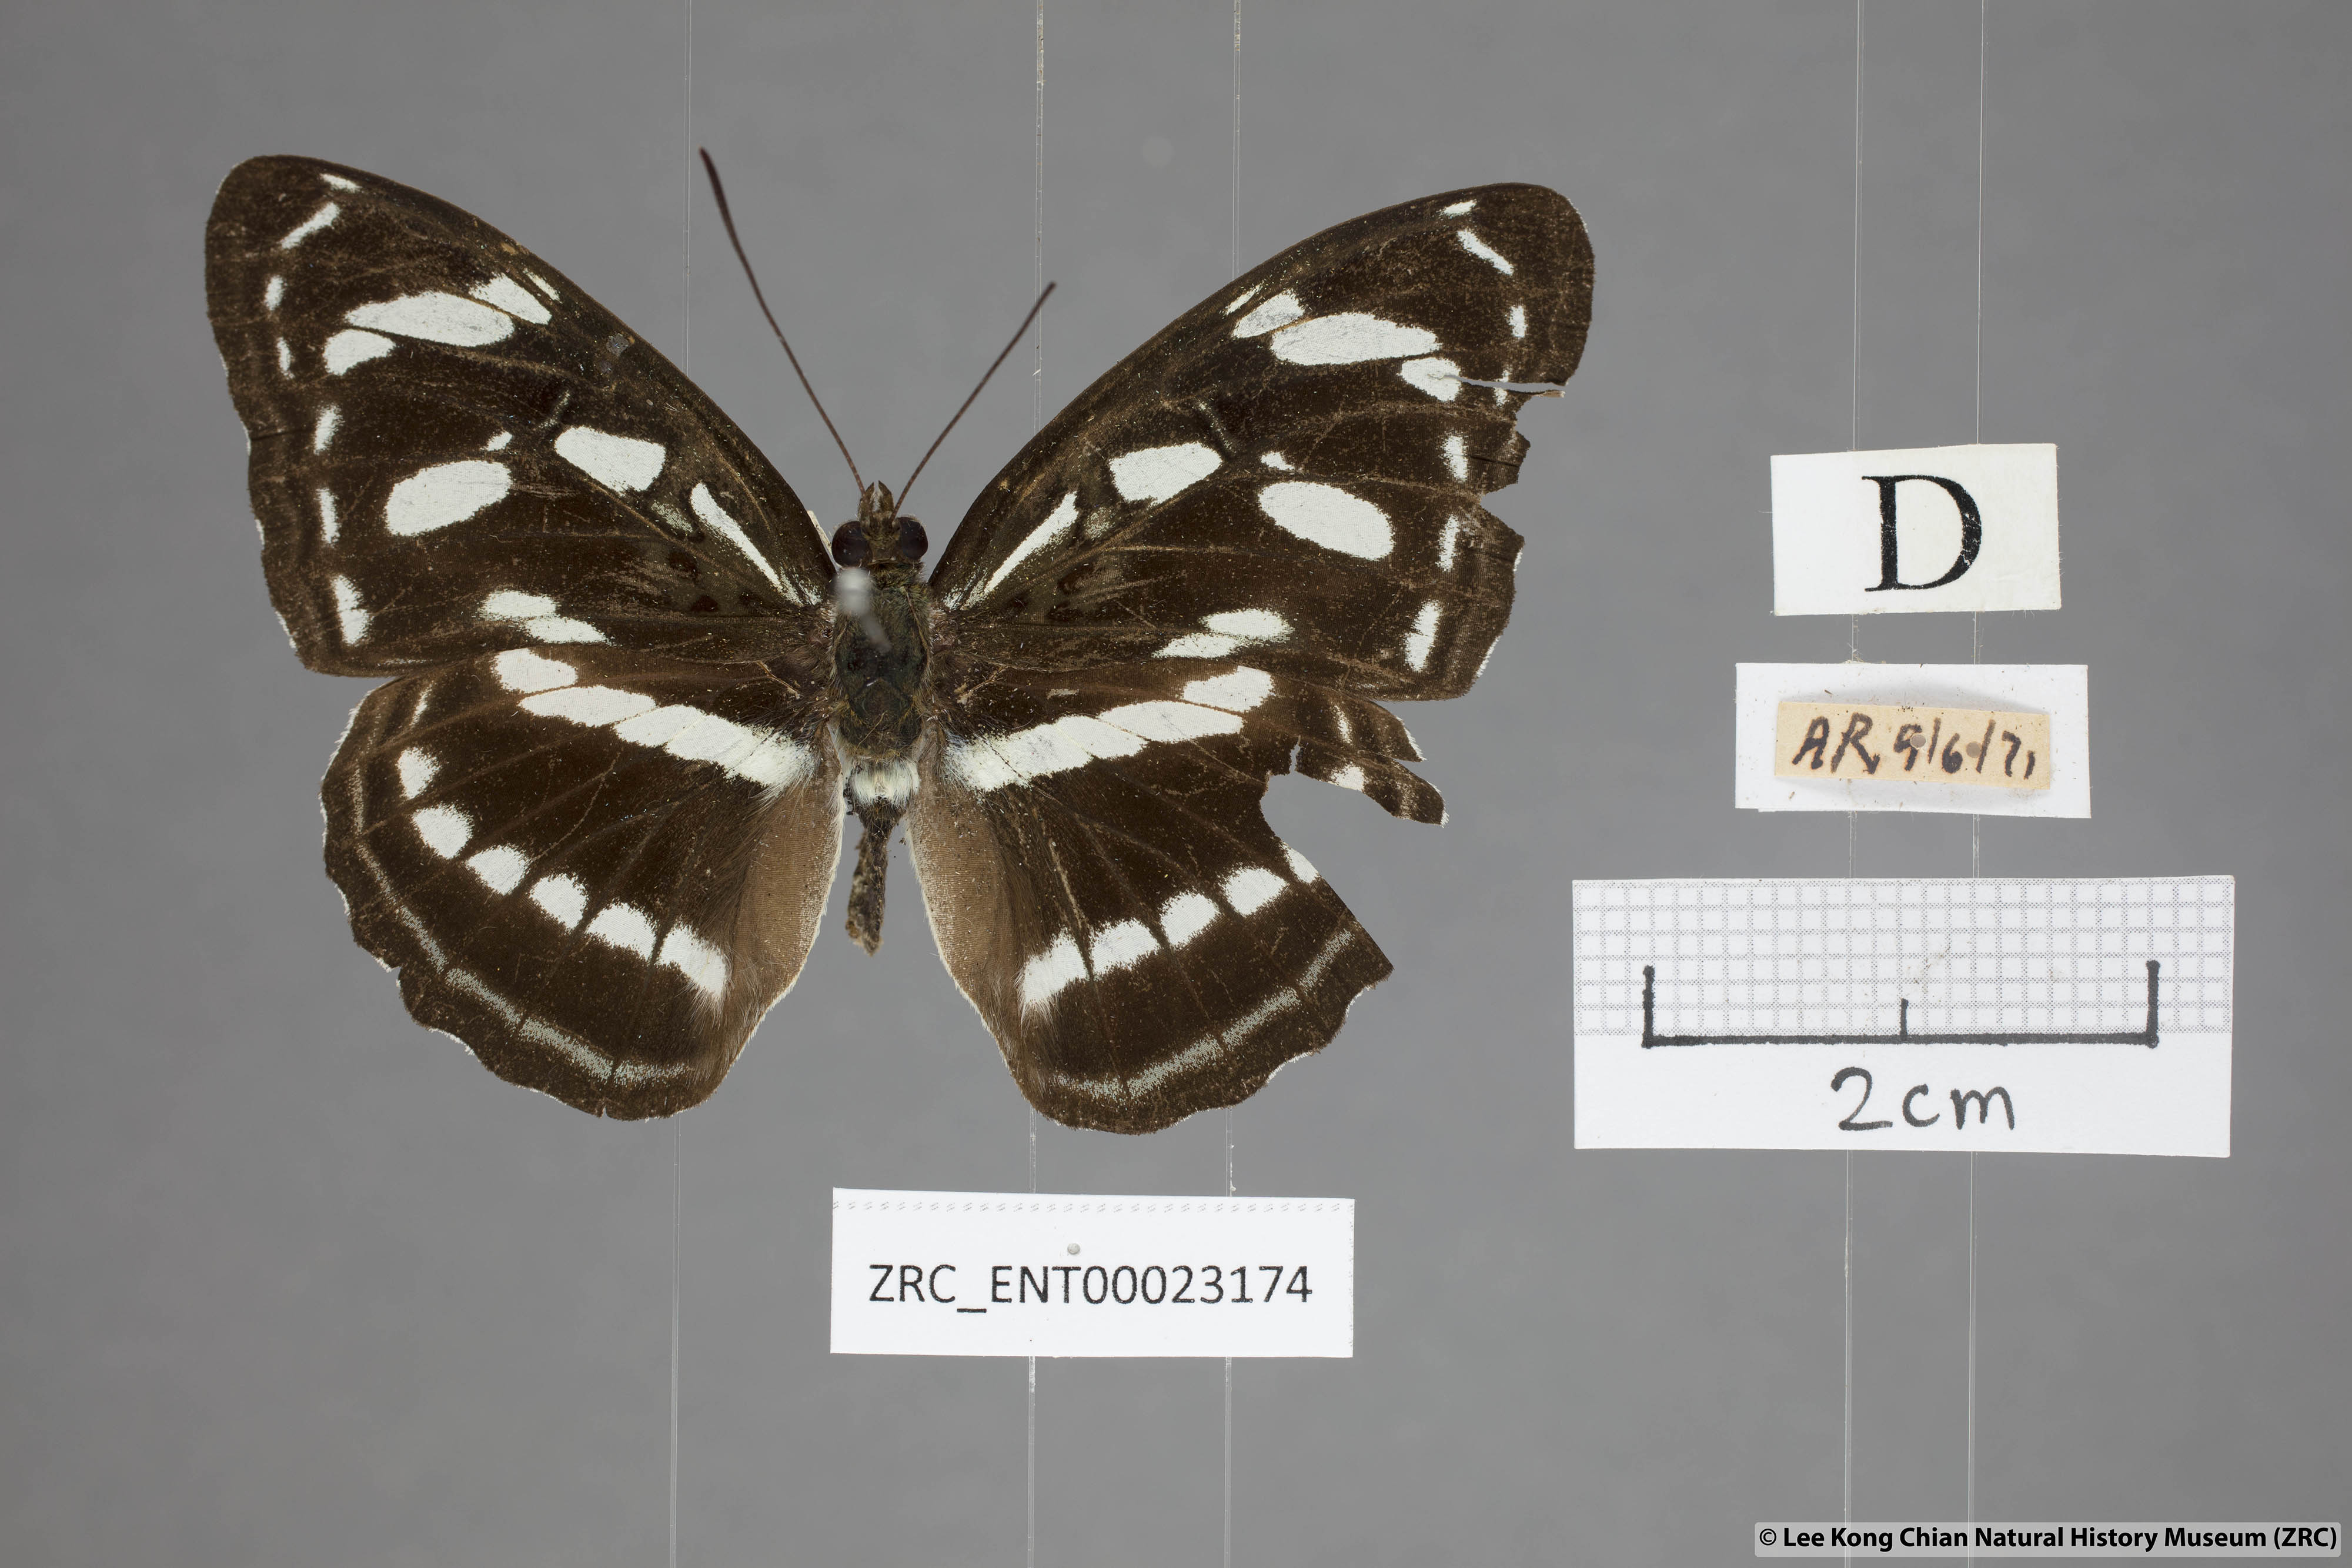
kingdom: Animalia
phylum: Arthropoda
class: Insecta
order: Lepidoptera
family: Nymphalidae
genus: Parathyma
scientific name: Parathyma abiasa
